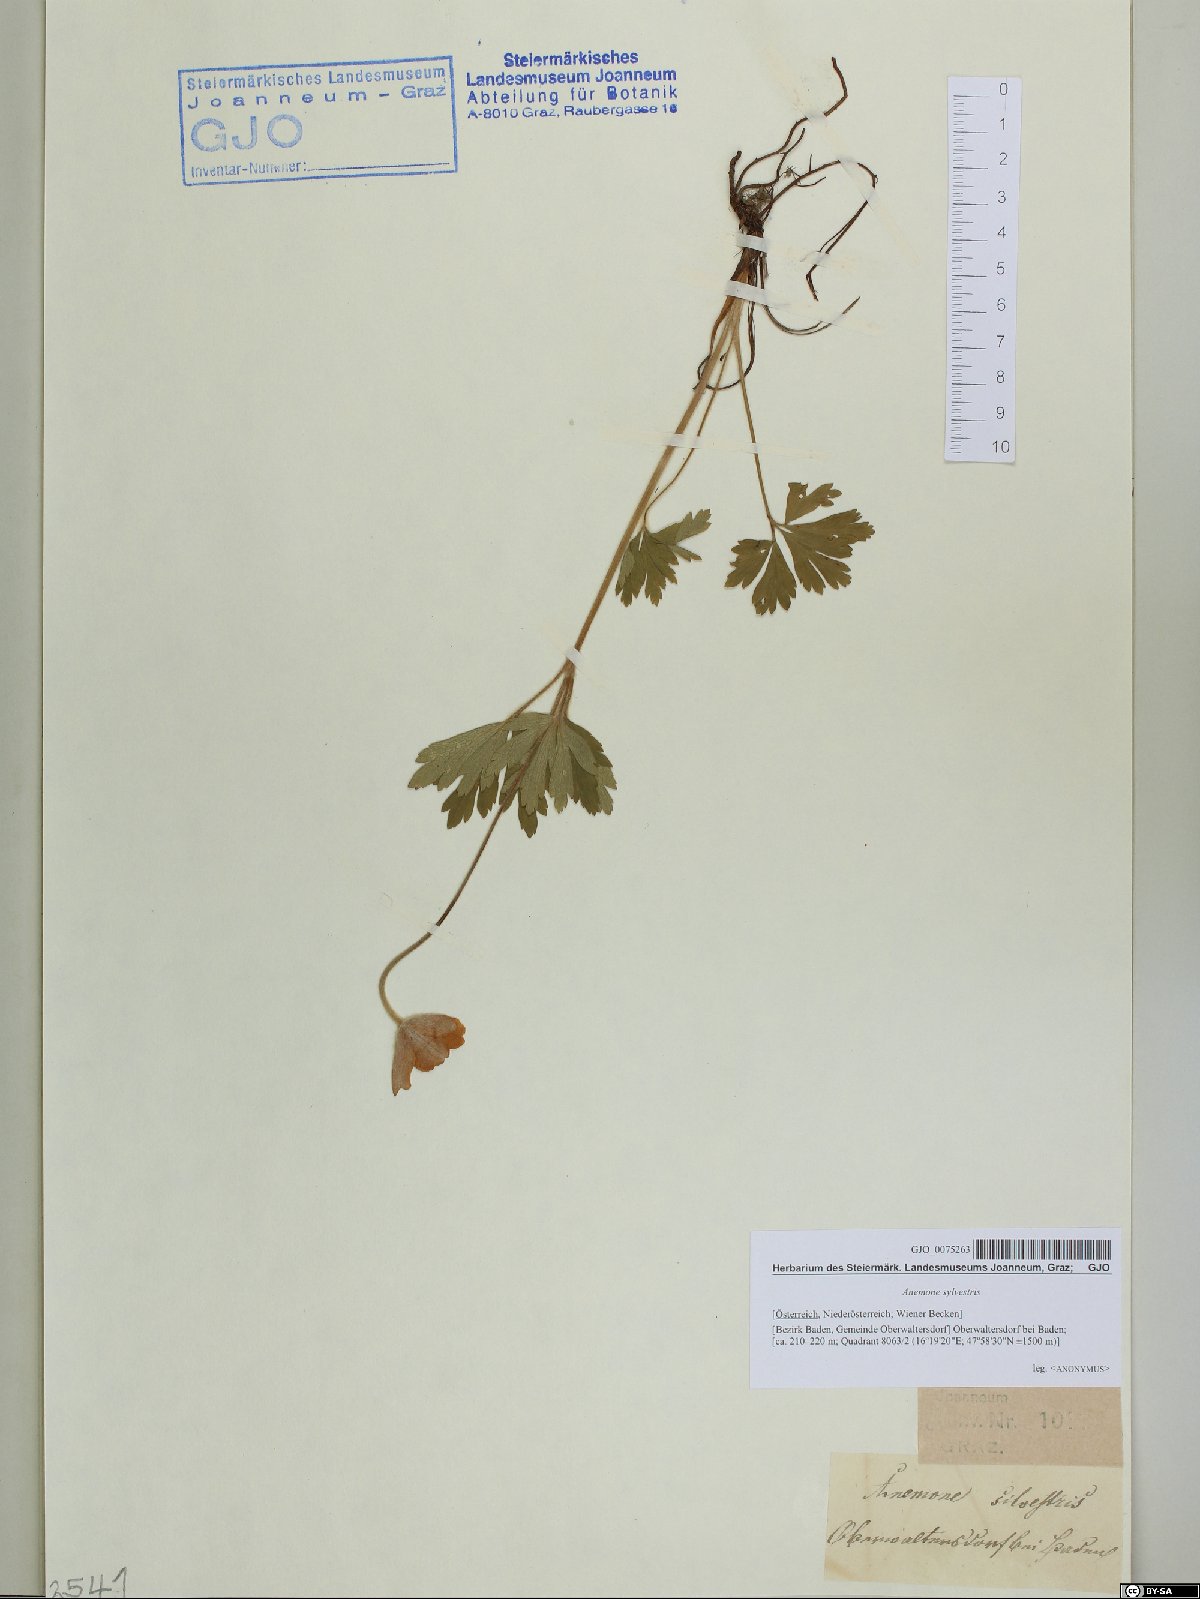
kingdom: Plantae
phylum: Tracheophyta
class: Magnoliopsida
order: Ranunculales
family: Ranunculaceae
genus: Anemone
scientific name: Anemone sylvestris
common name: Snowdrop anemone
